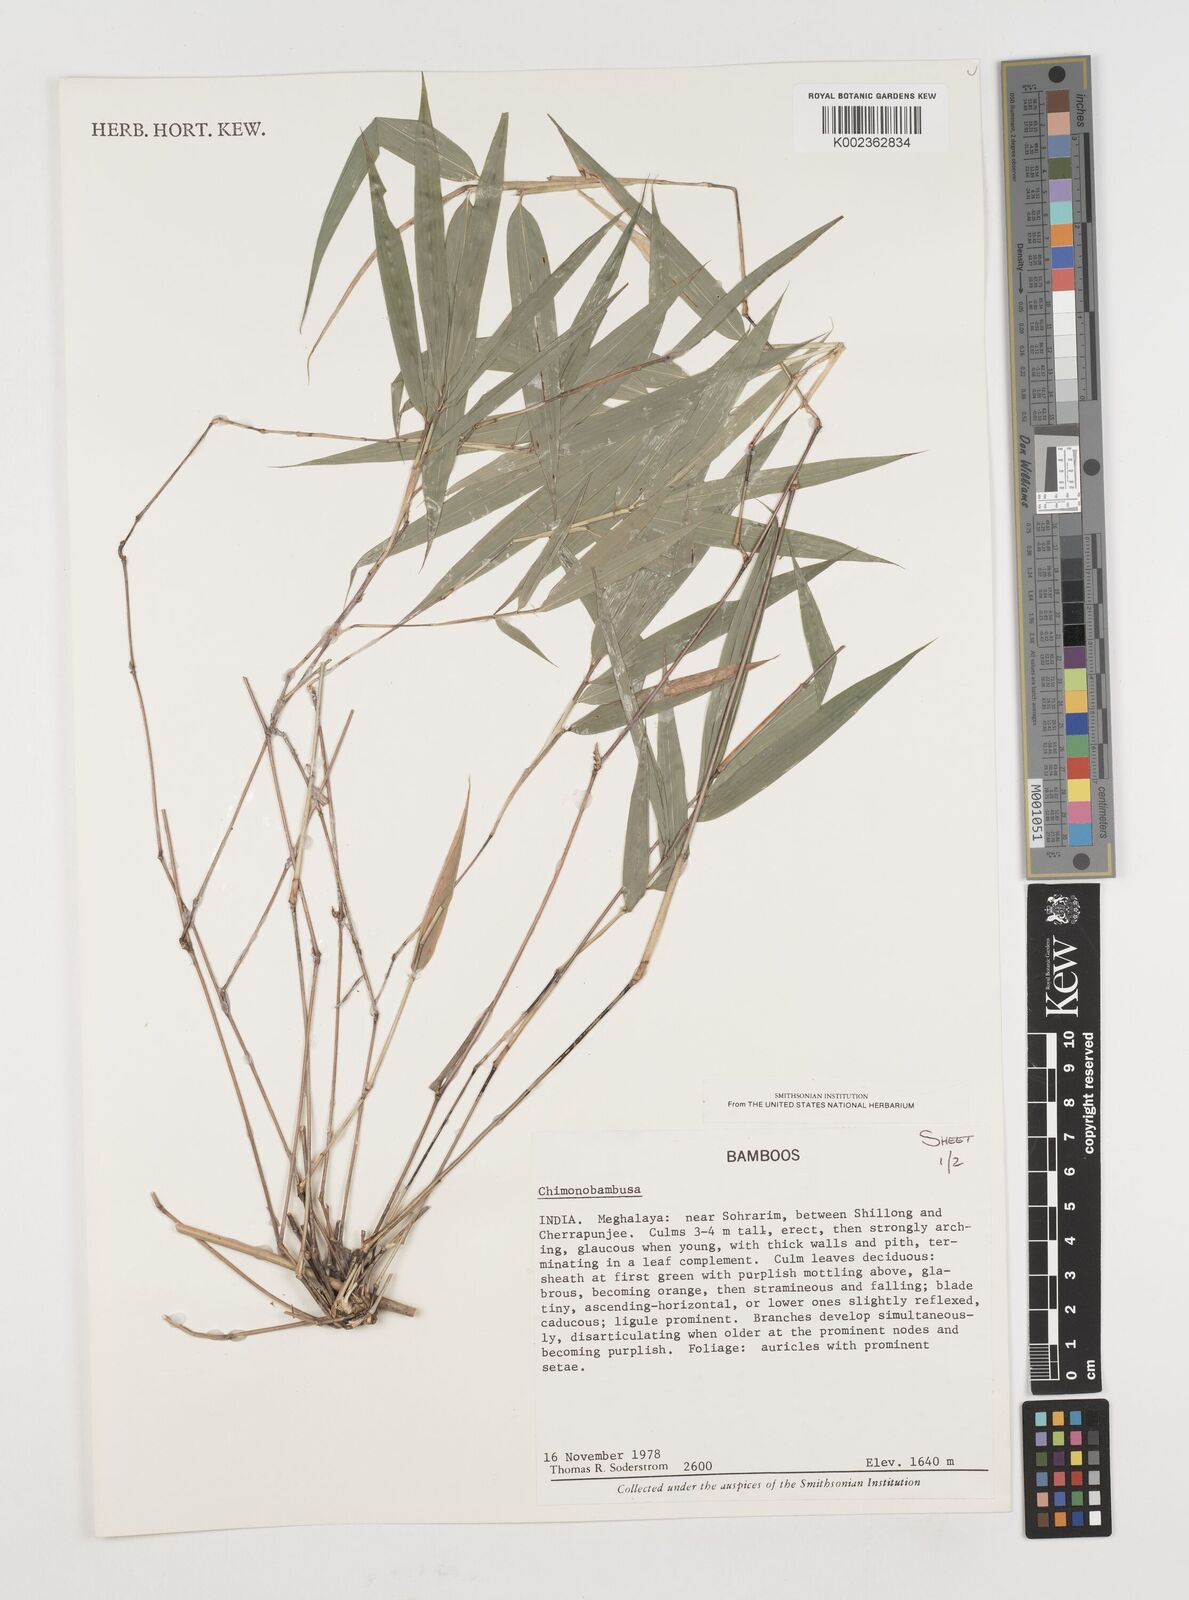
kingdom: Plantae
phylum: Tracheophyta
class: Liliopsida
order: Poales
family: Poaceae
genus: Chimonobambusa
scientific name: Chimonobambusa
